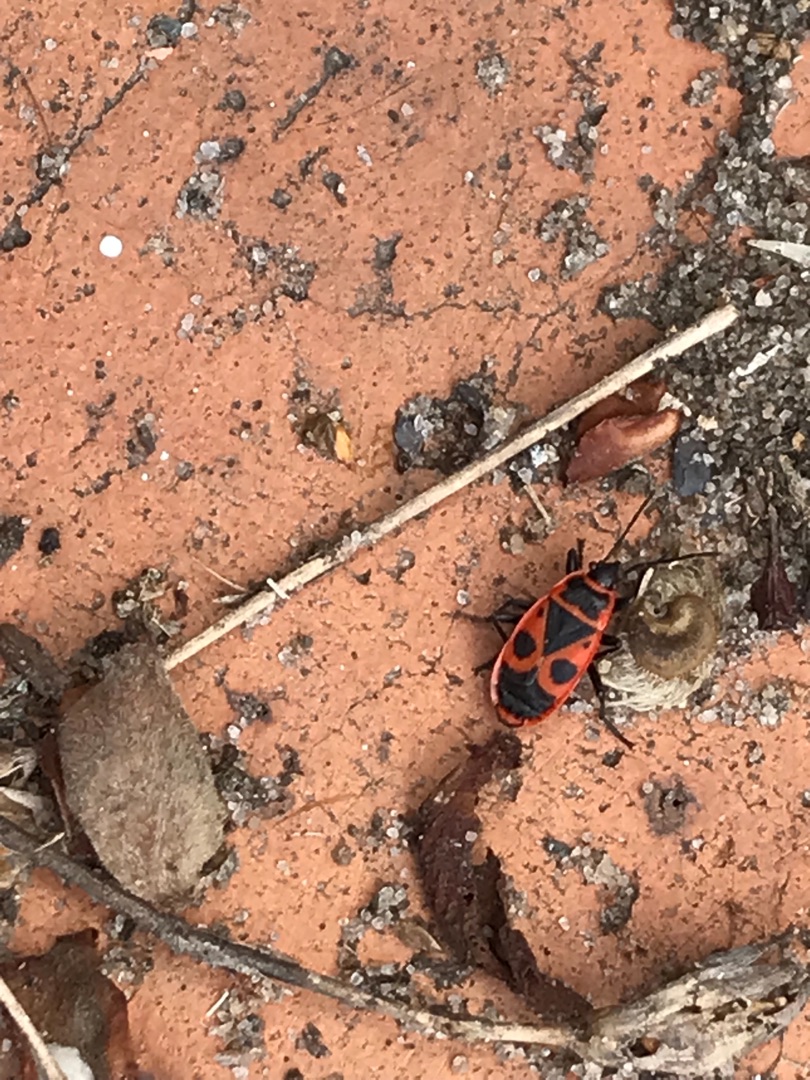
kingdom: Animalia
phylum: Arthropoda
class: Insecta
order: Hemiptera
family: Pyrrhocoridae
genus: Pyrrhocoris
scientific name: Pyrrhocoris apterus
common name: Ildtæge
